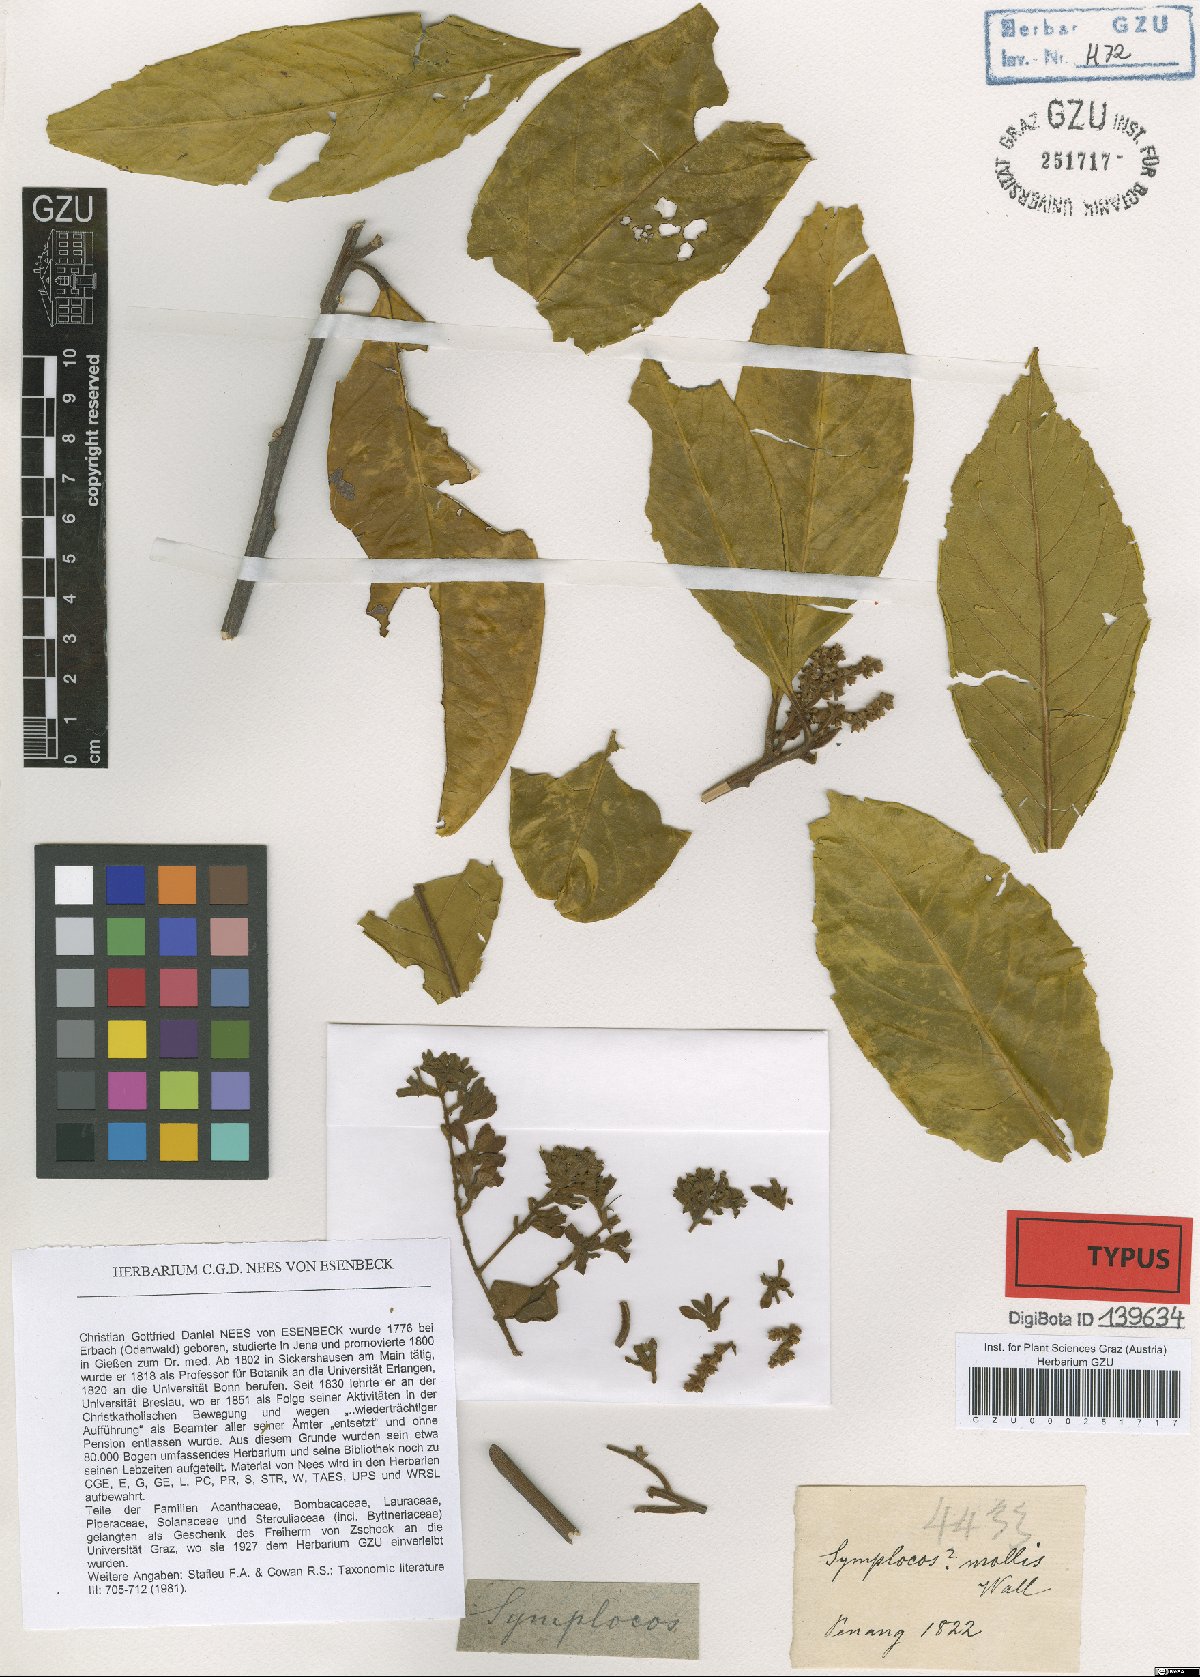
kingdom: Plantae
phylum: Tracheophyta
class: Magnoliopsida
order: Ericales
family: Symplocaceae
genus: Symplocos
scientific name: Symplocos cochinchinensis
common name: Buff hazelwood
